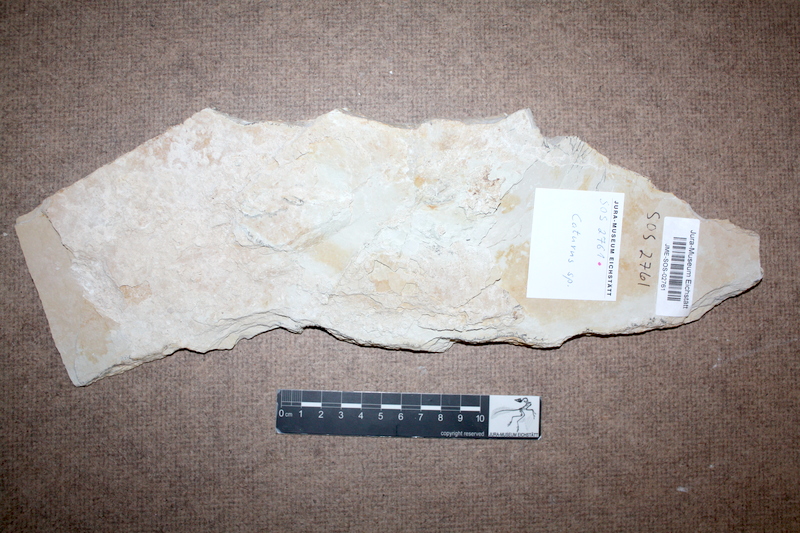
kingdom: Animalia
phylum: Chordata
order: Amiiformes
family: Caturidae
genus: Caturus
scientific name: Caturus
